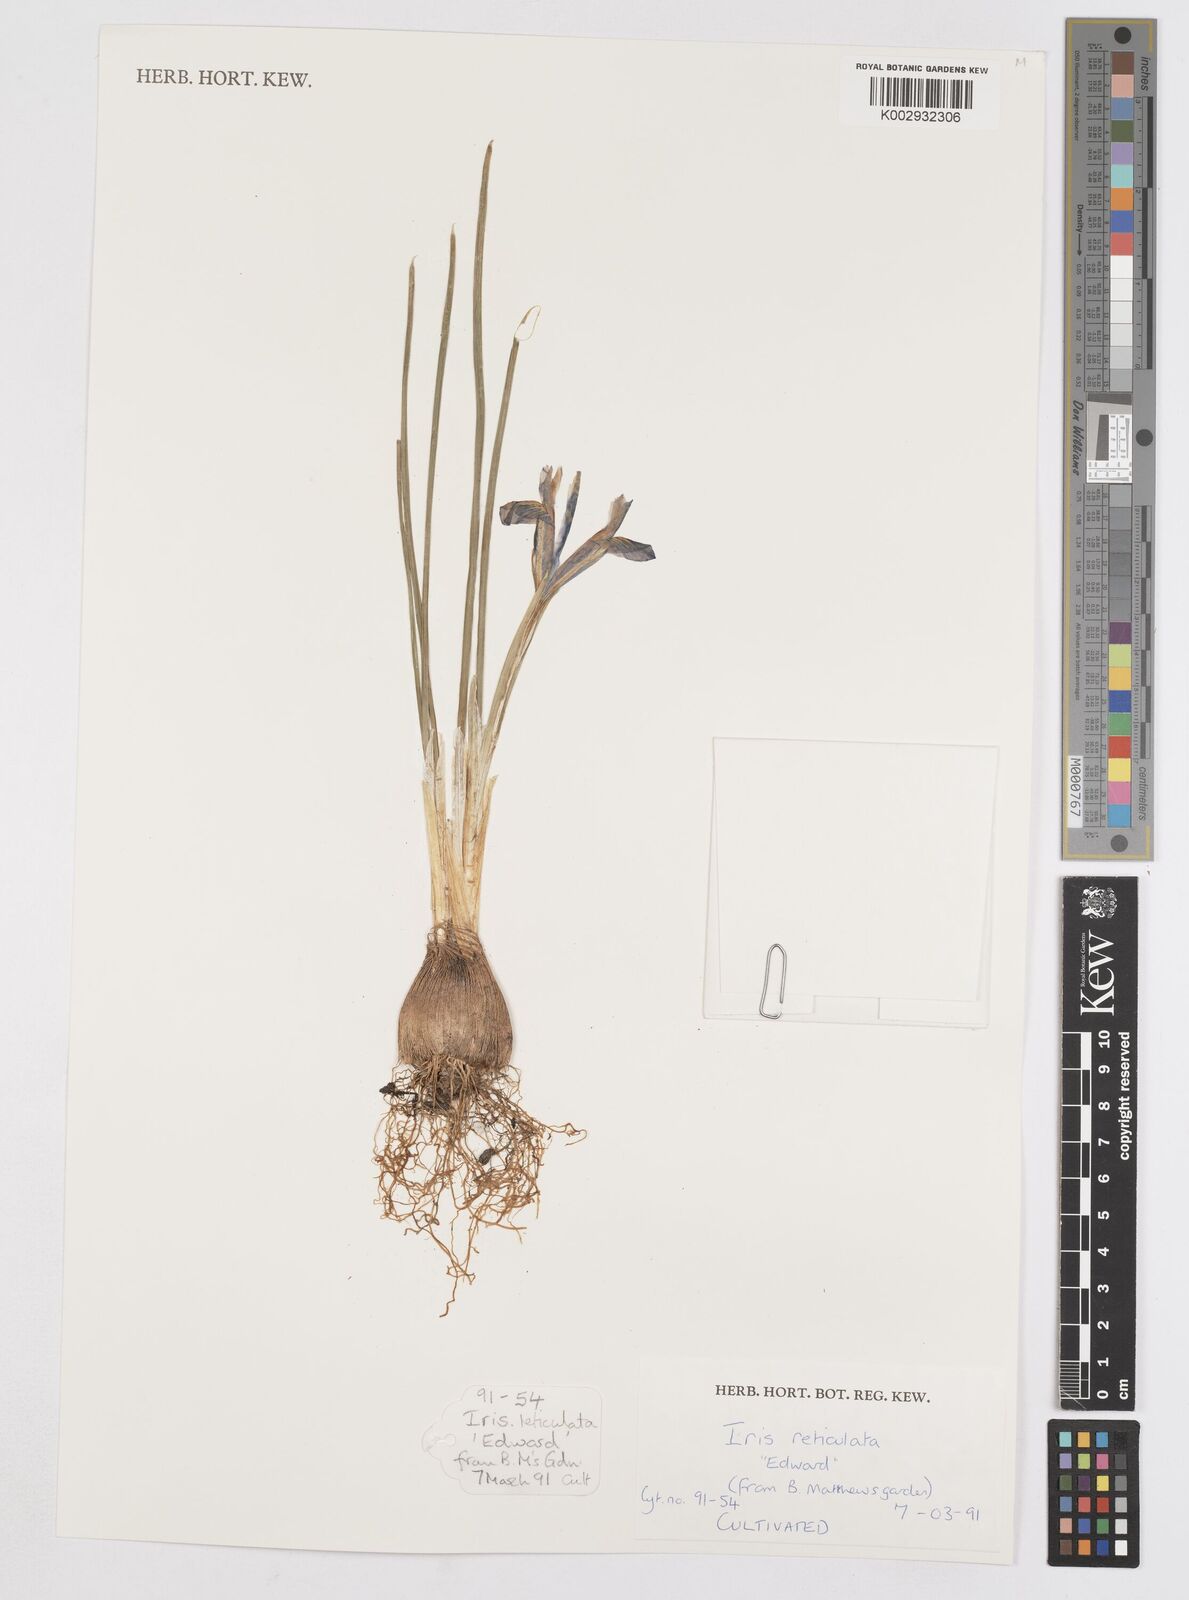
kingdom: Plantae
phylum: Tracheophyta
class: Liliopsida
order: Asparagales
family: Iridaceae
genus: Iris
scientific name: Iris reticulata
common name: Netted iris
